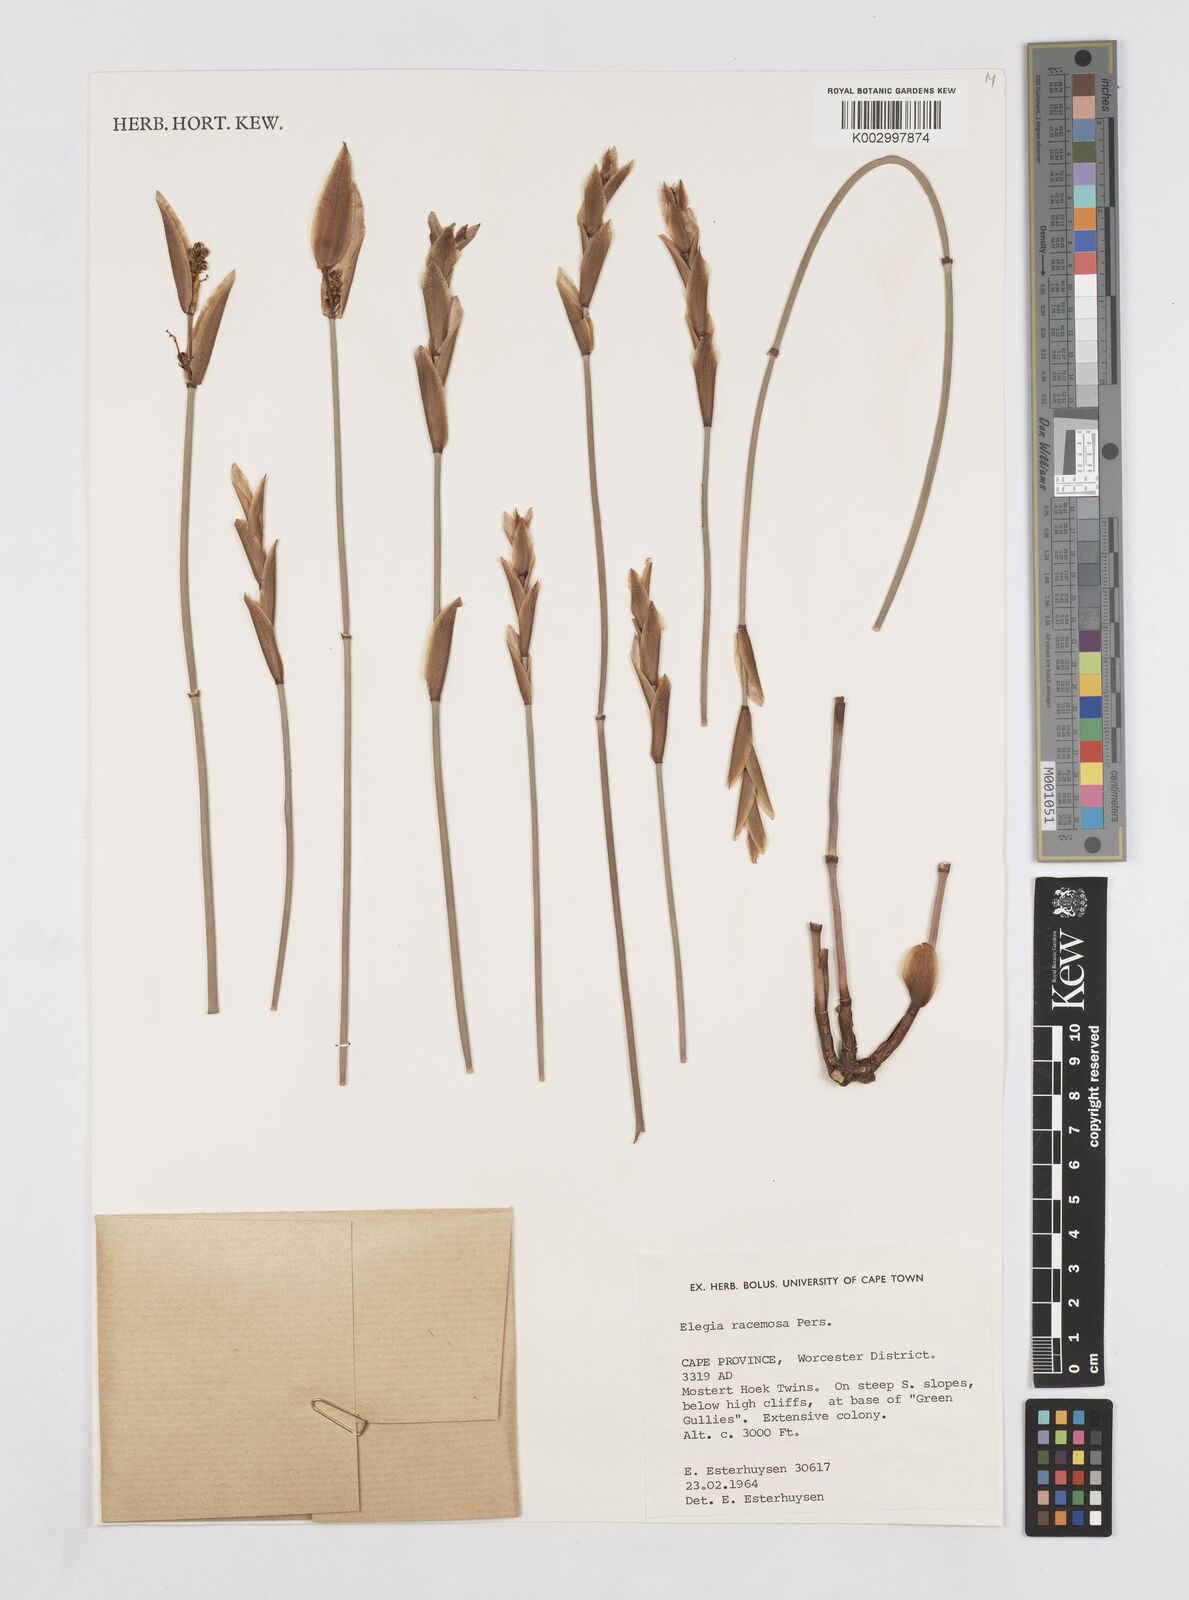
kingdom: Plantae
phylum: Tracheophyta
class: Liliopsida
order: Poales
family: Restionaceae
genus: Elegia
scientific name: Elegia racemosa
